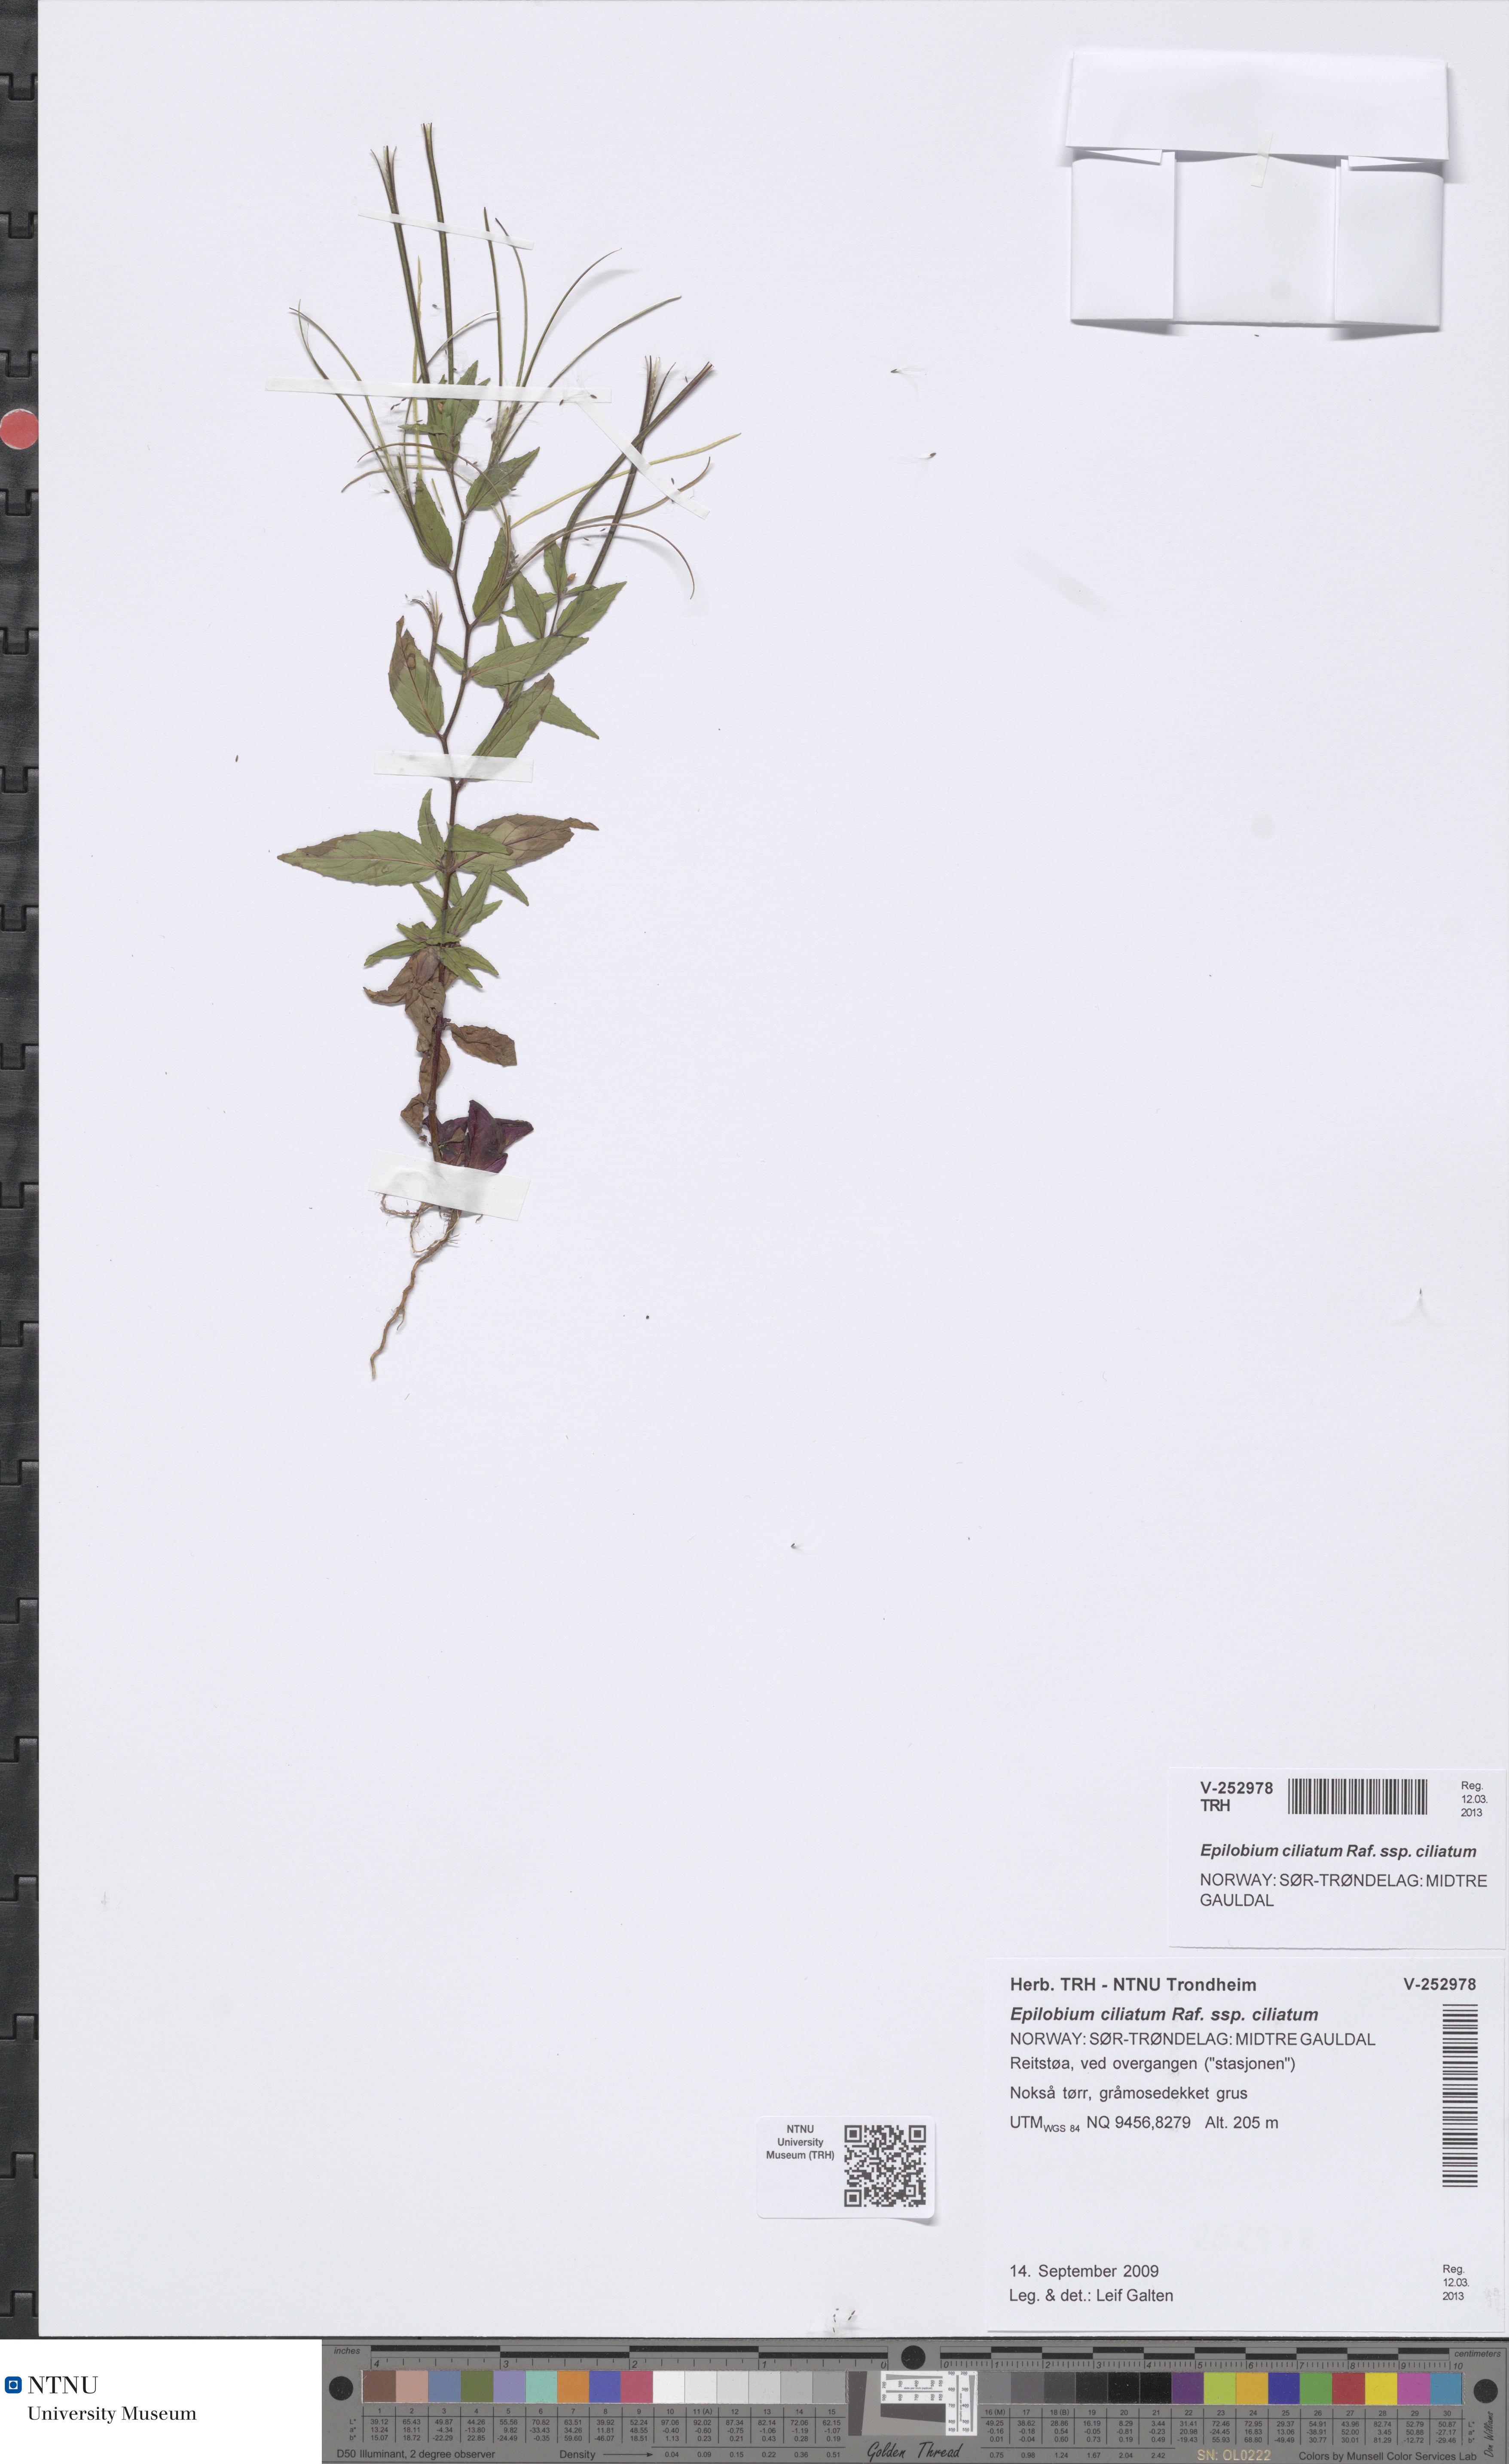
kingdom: Plantae
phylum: Tracheophyta
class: Magnoliopsida
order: Myrtales
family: Onagraceae
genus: Epilobium
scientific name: Epilobium ciliatum
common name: American willowherb
